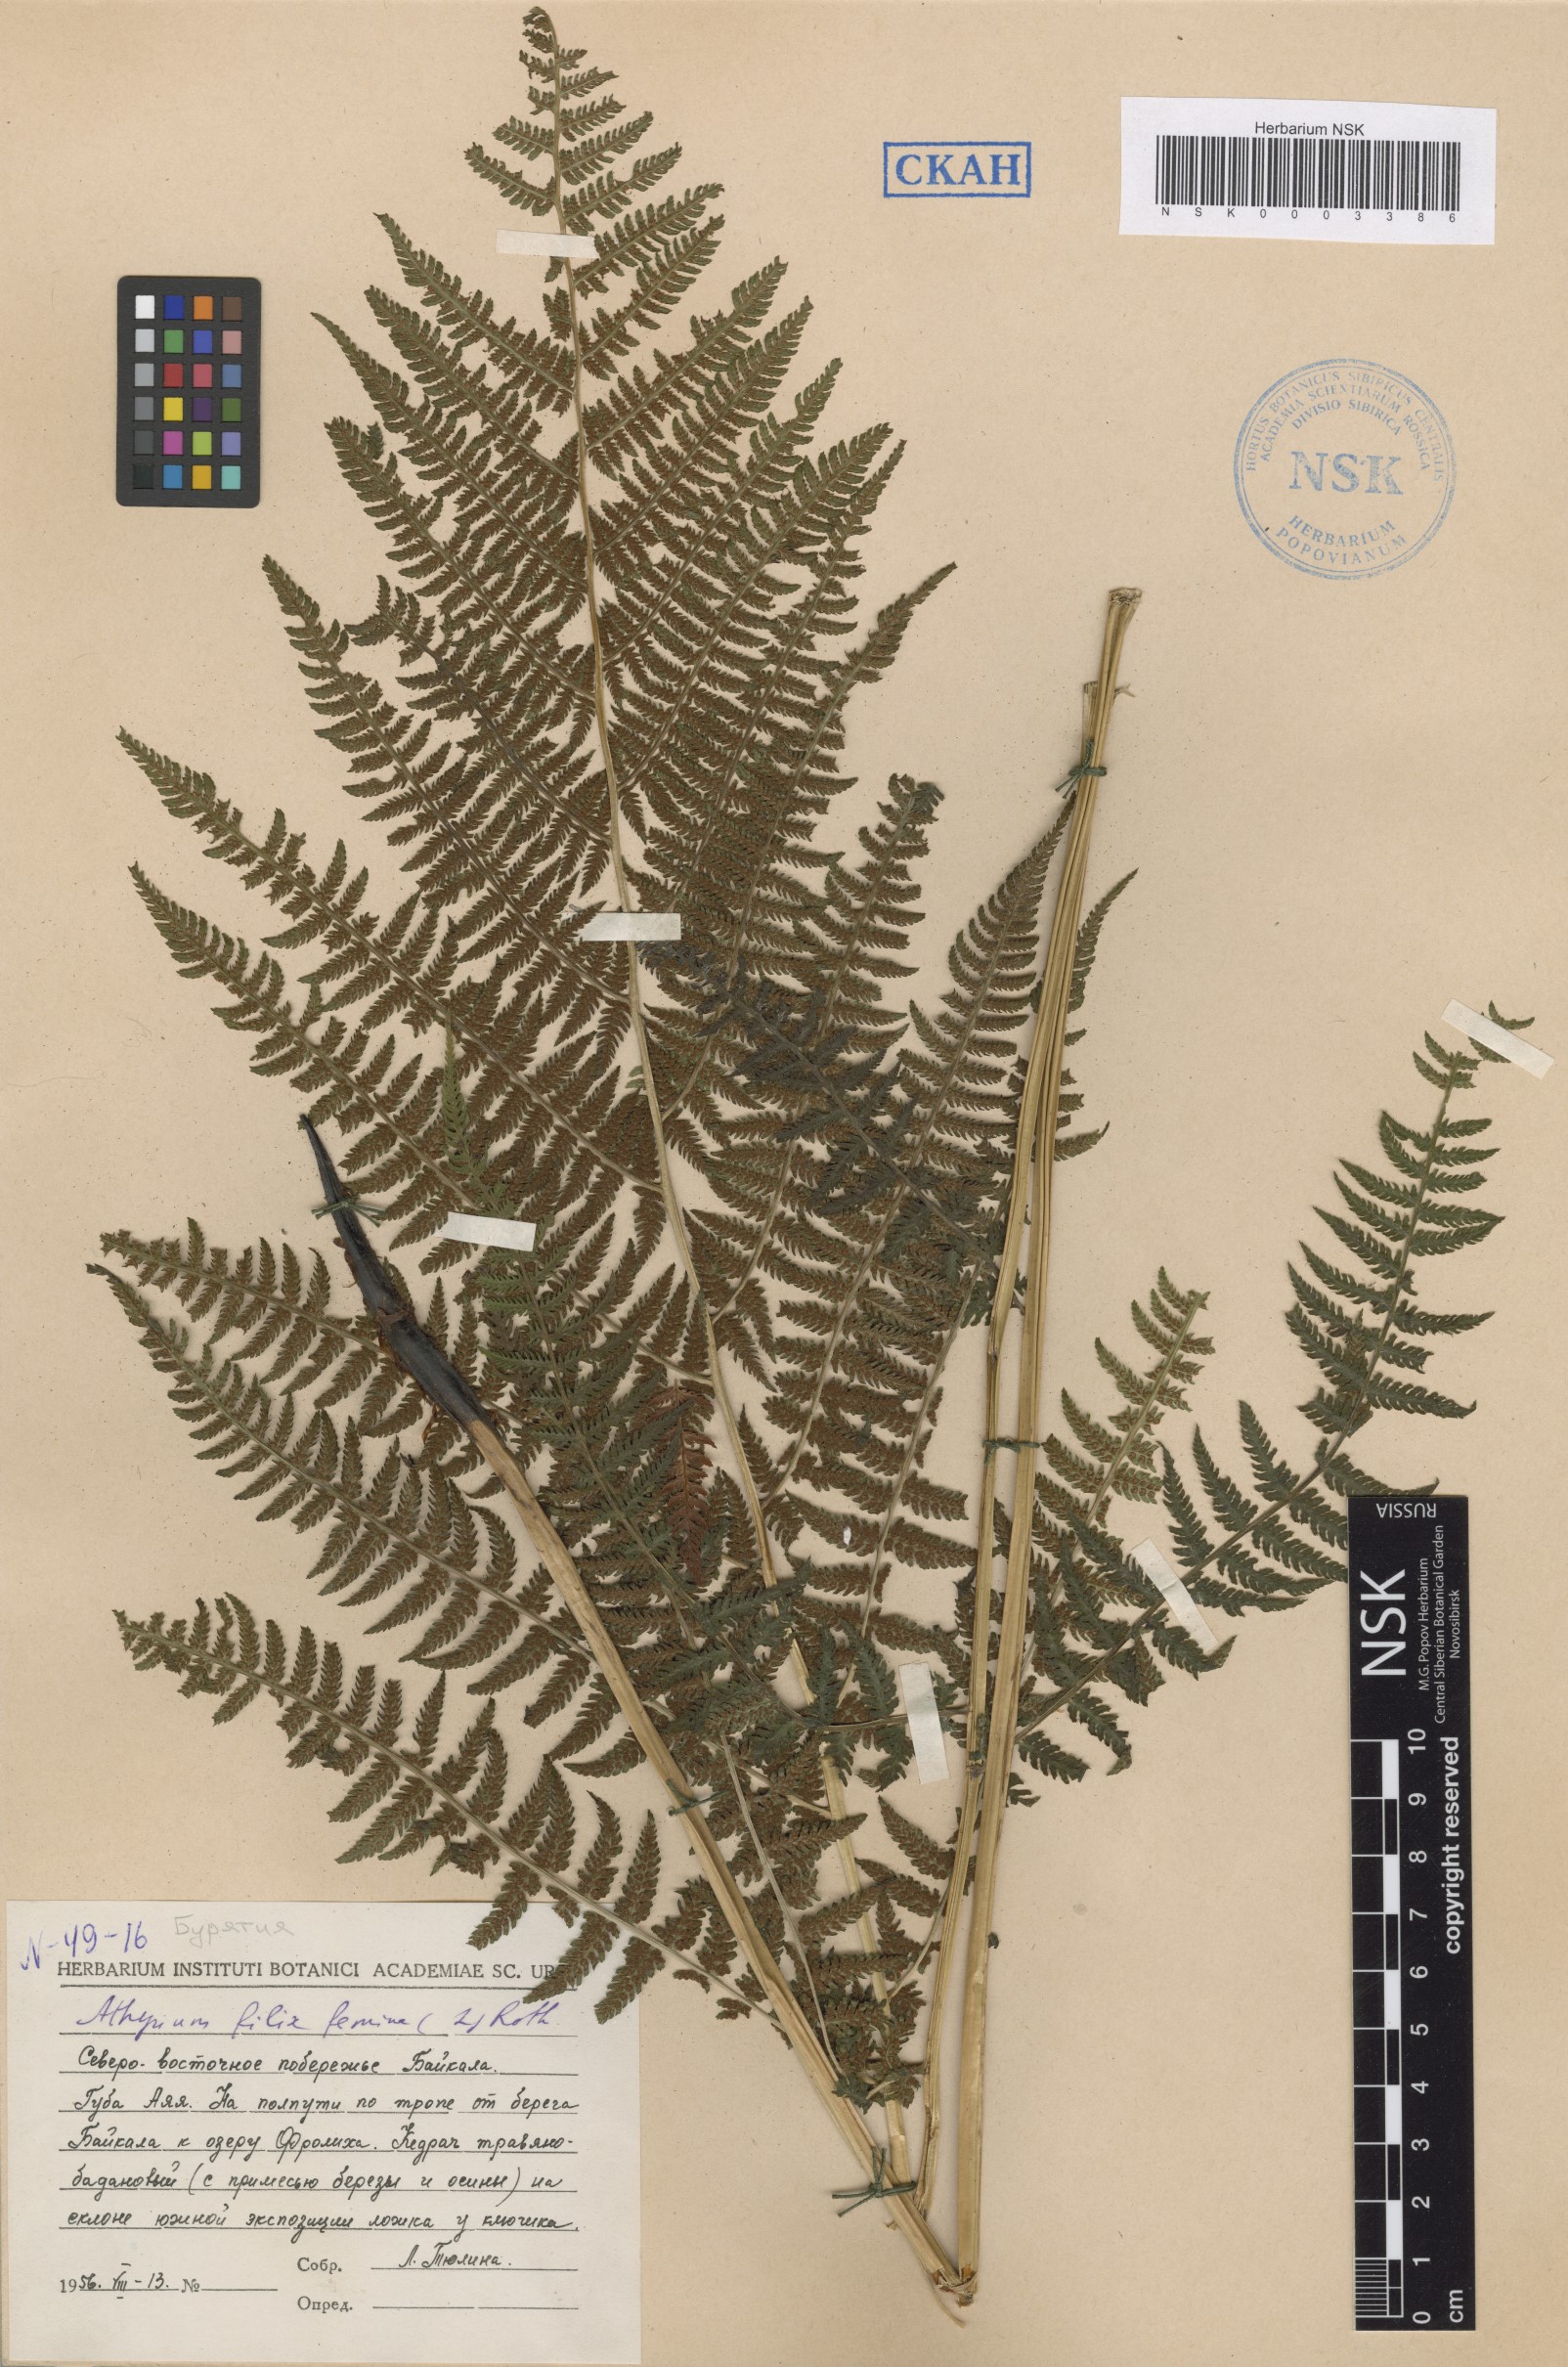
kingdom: Plantae
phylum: Tracheophyta
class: Polypodiopsida
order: Polypodiales
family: Athyriaceae
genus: Athyrium
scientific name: Athyrium filix-femina
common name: Lady fern
